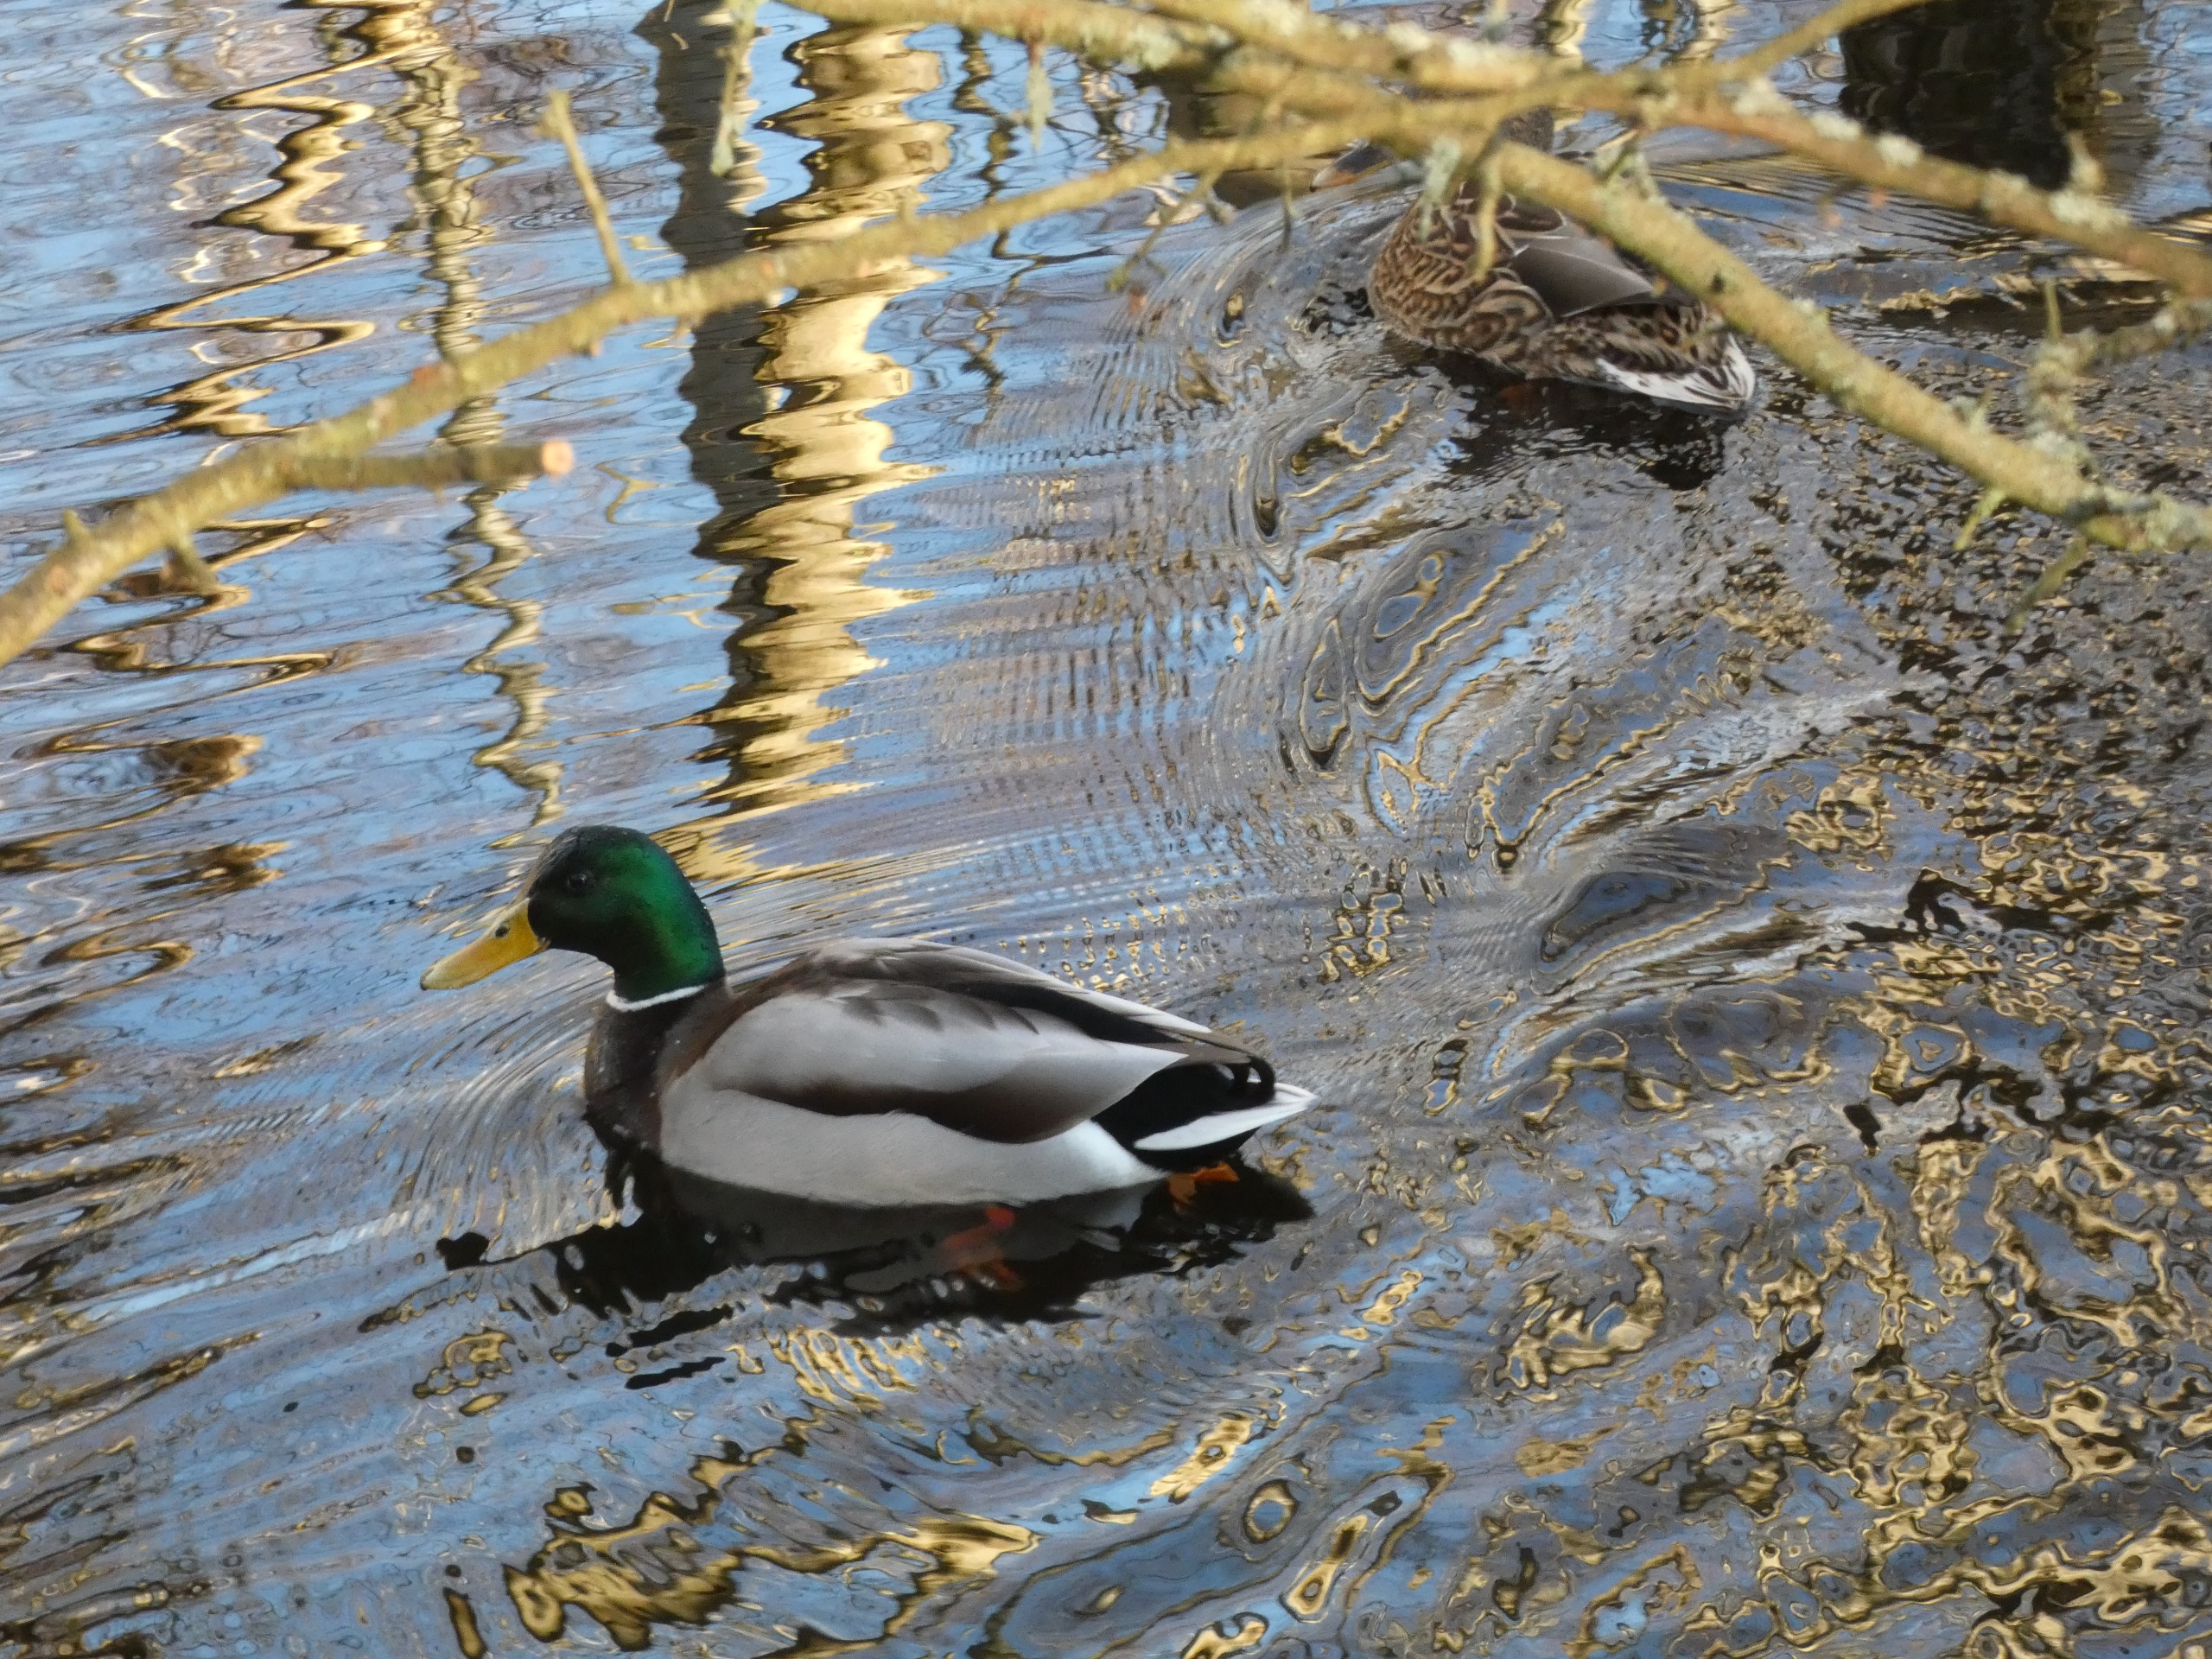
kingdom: Animalia
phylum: Chordata
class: Aves
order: Anseriformes
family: Anatidae
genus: Anas
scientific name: Anas platyrhynchos
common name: Gråand
